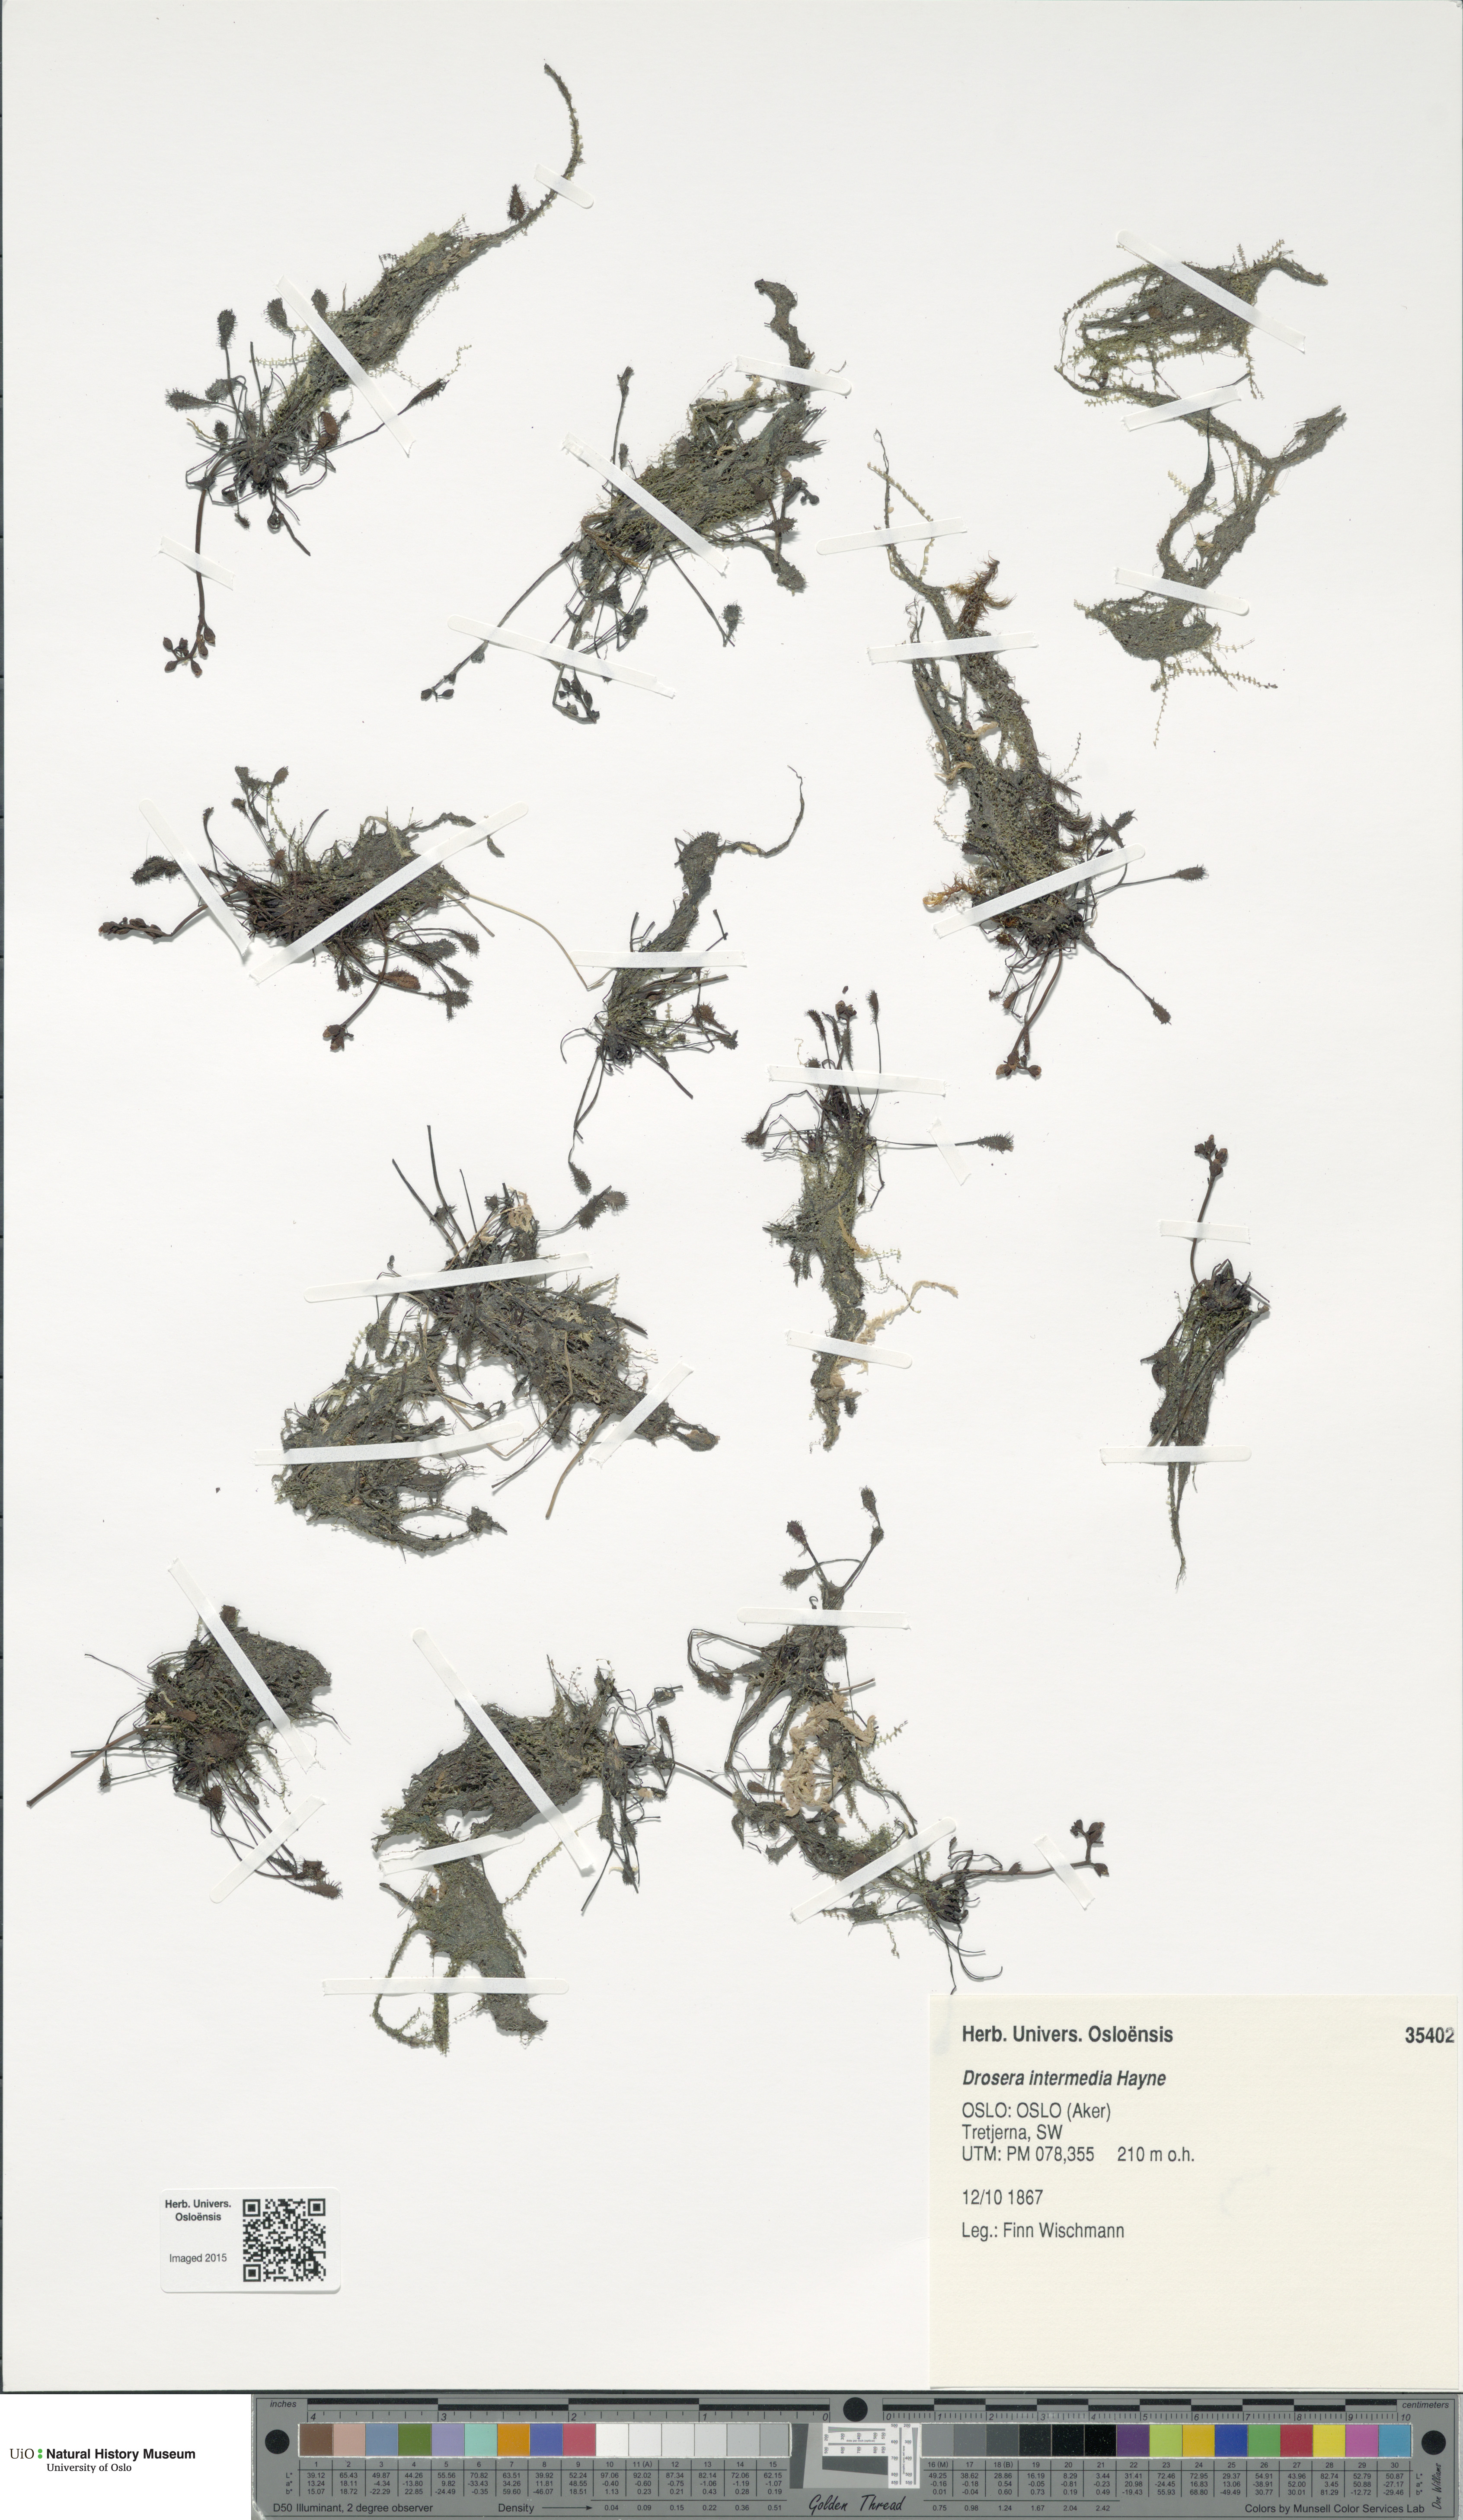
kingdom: Plantae
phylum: Tracheophyta
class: Magnoliopsida
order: Caryophyllales
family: Droseraceae
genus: Drosera
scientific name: Drosera intermedia
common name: Oblong-leaved sundew
